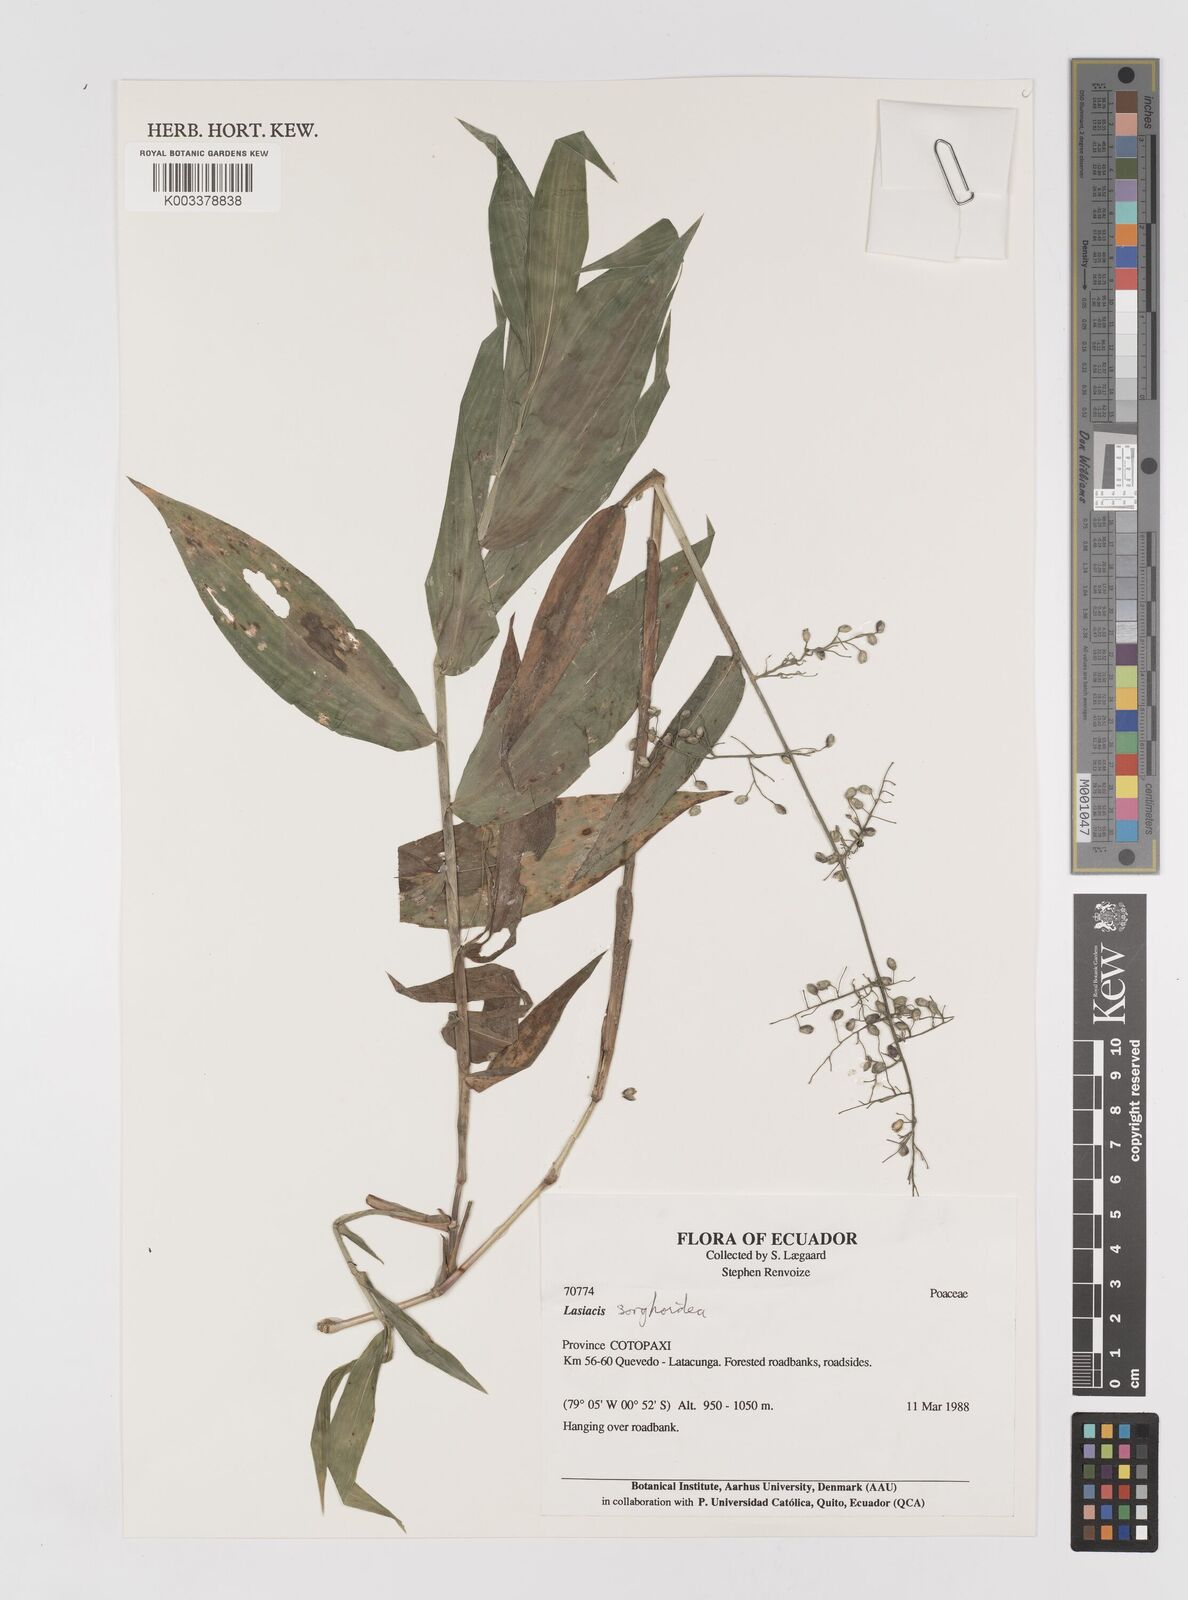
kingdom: Plantae
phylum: Tracheophyta
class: Liliopsida
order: Poales
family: Poaceae
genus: Lasiacis
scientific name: Lasiacis maculata
